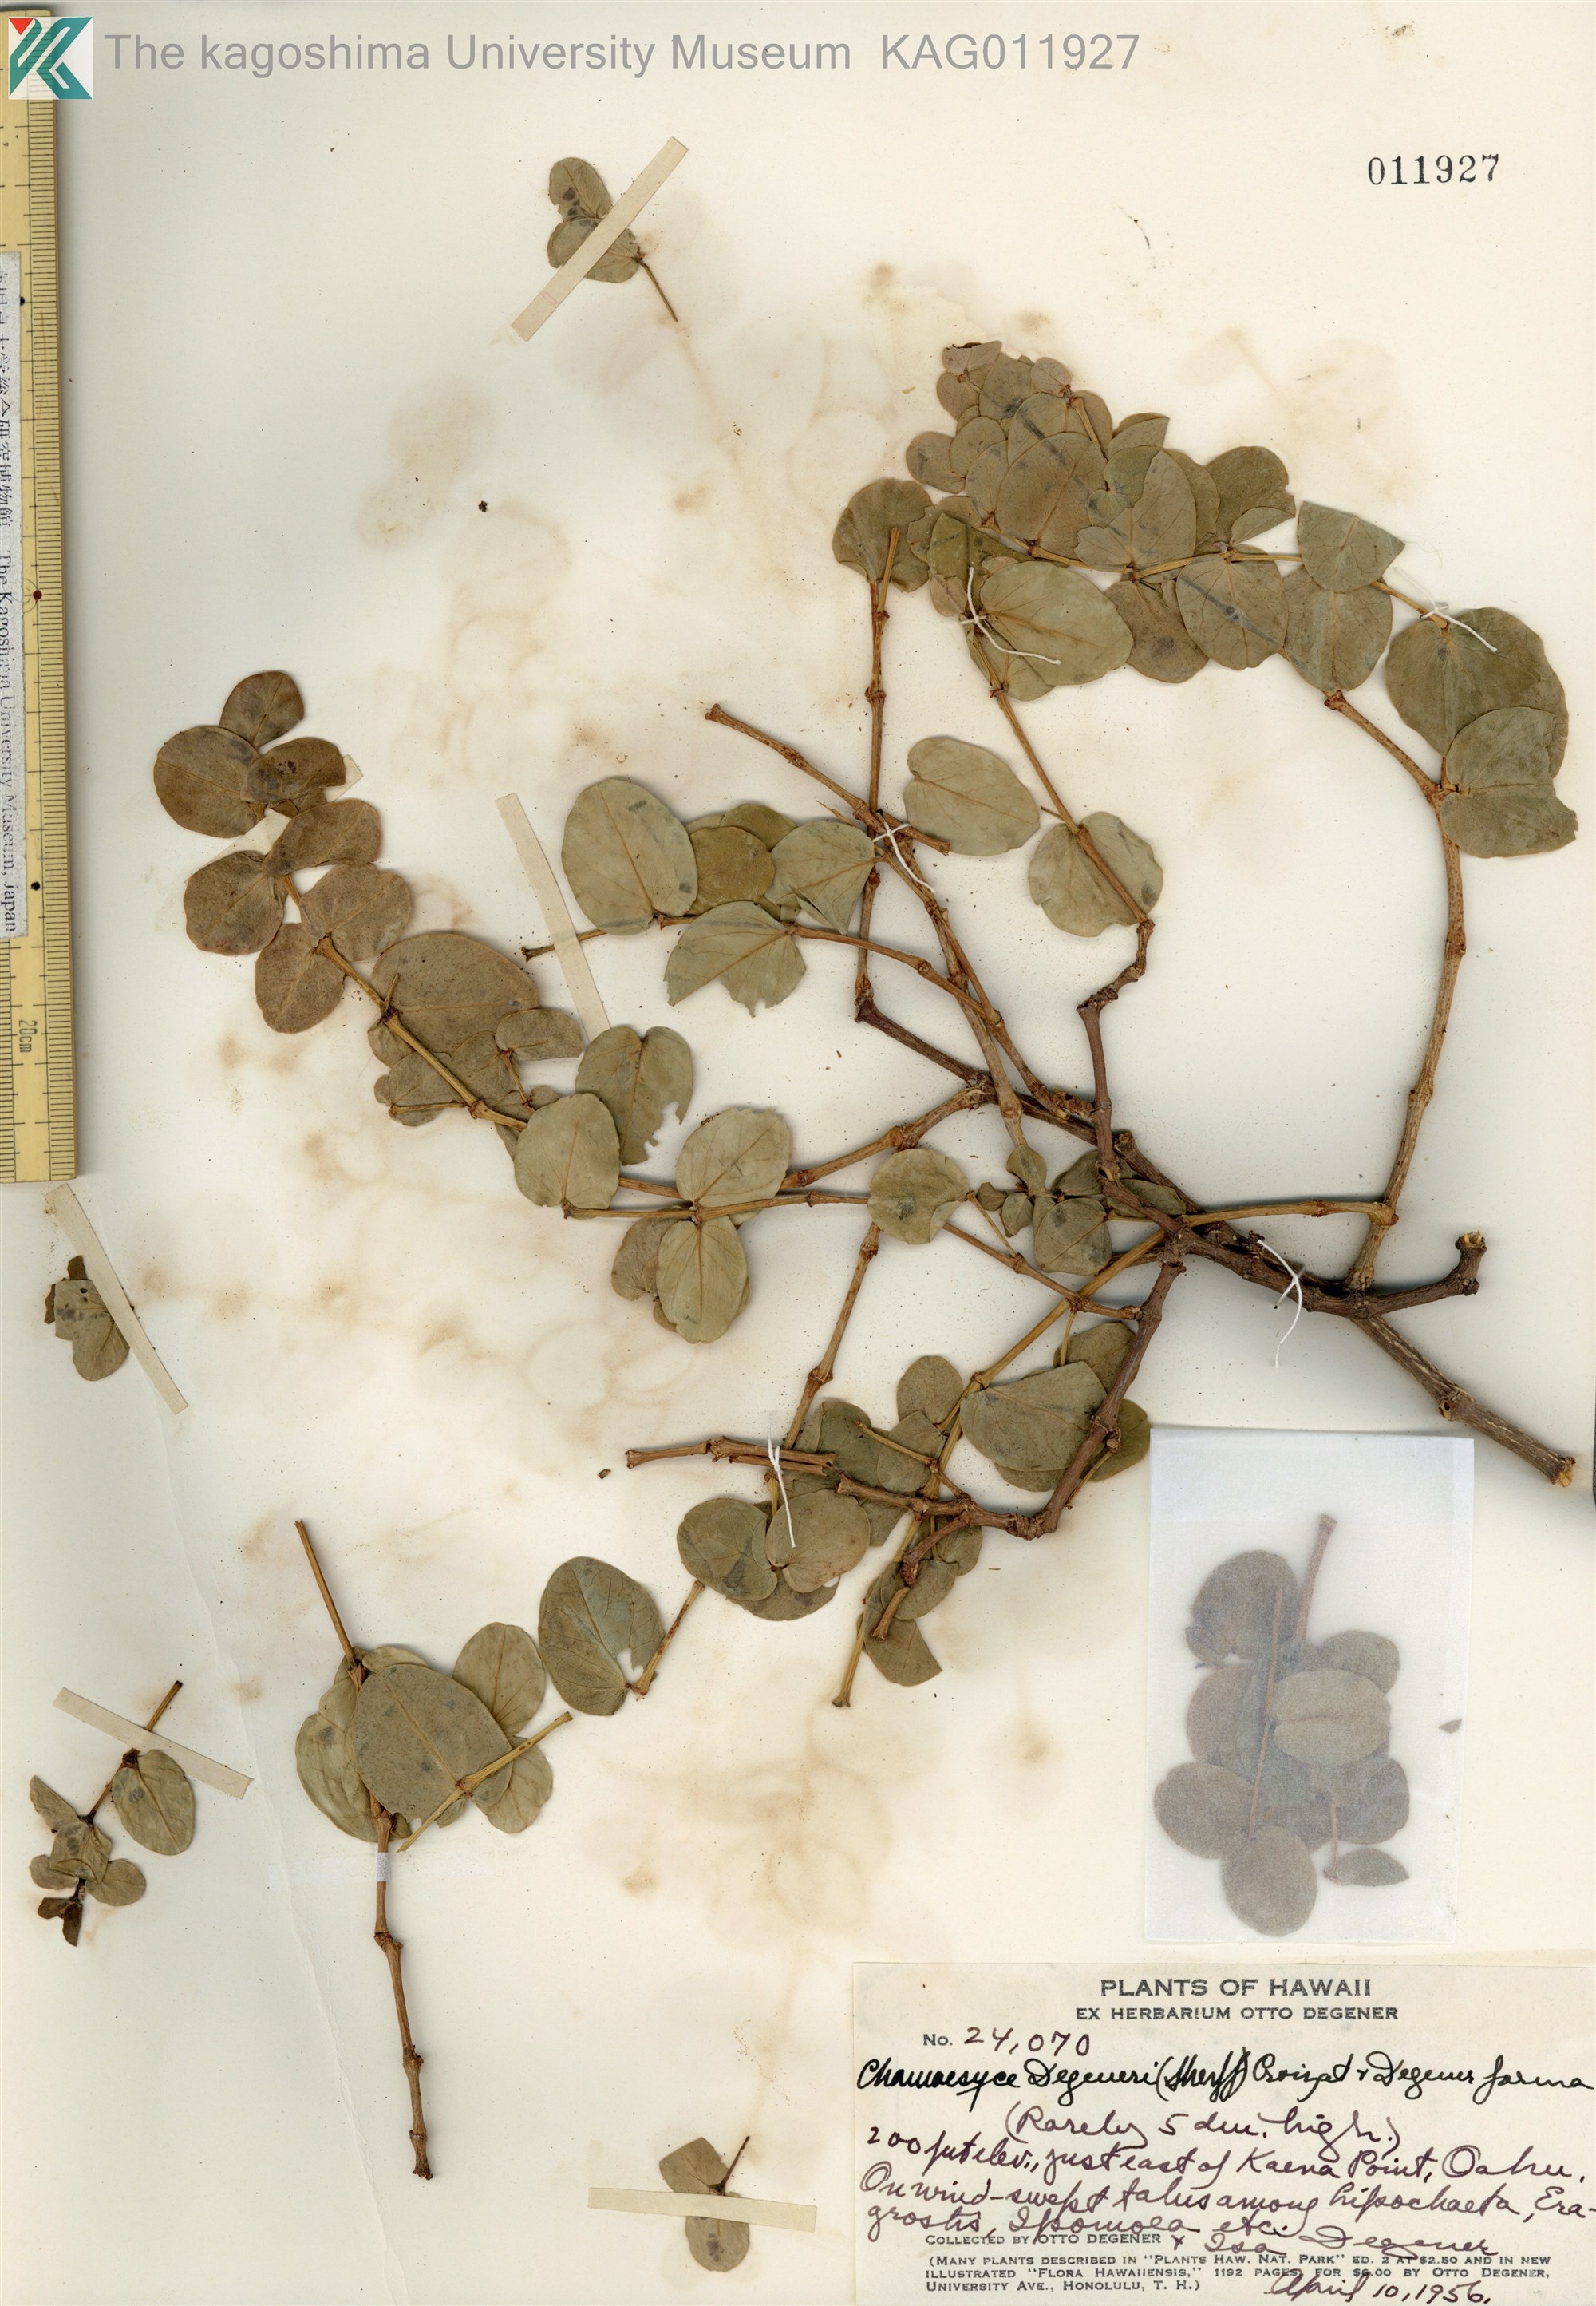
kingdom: Plantae
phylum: Tracheophyta
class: Magnoliopsida
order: Malpighiales
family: Euphorbiaceae
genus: Euphorbia
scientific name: Euphorbia degeneri
